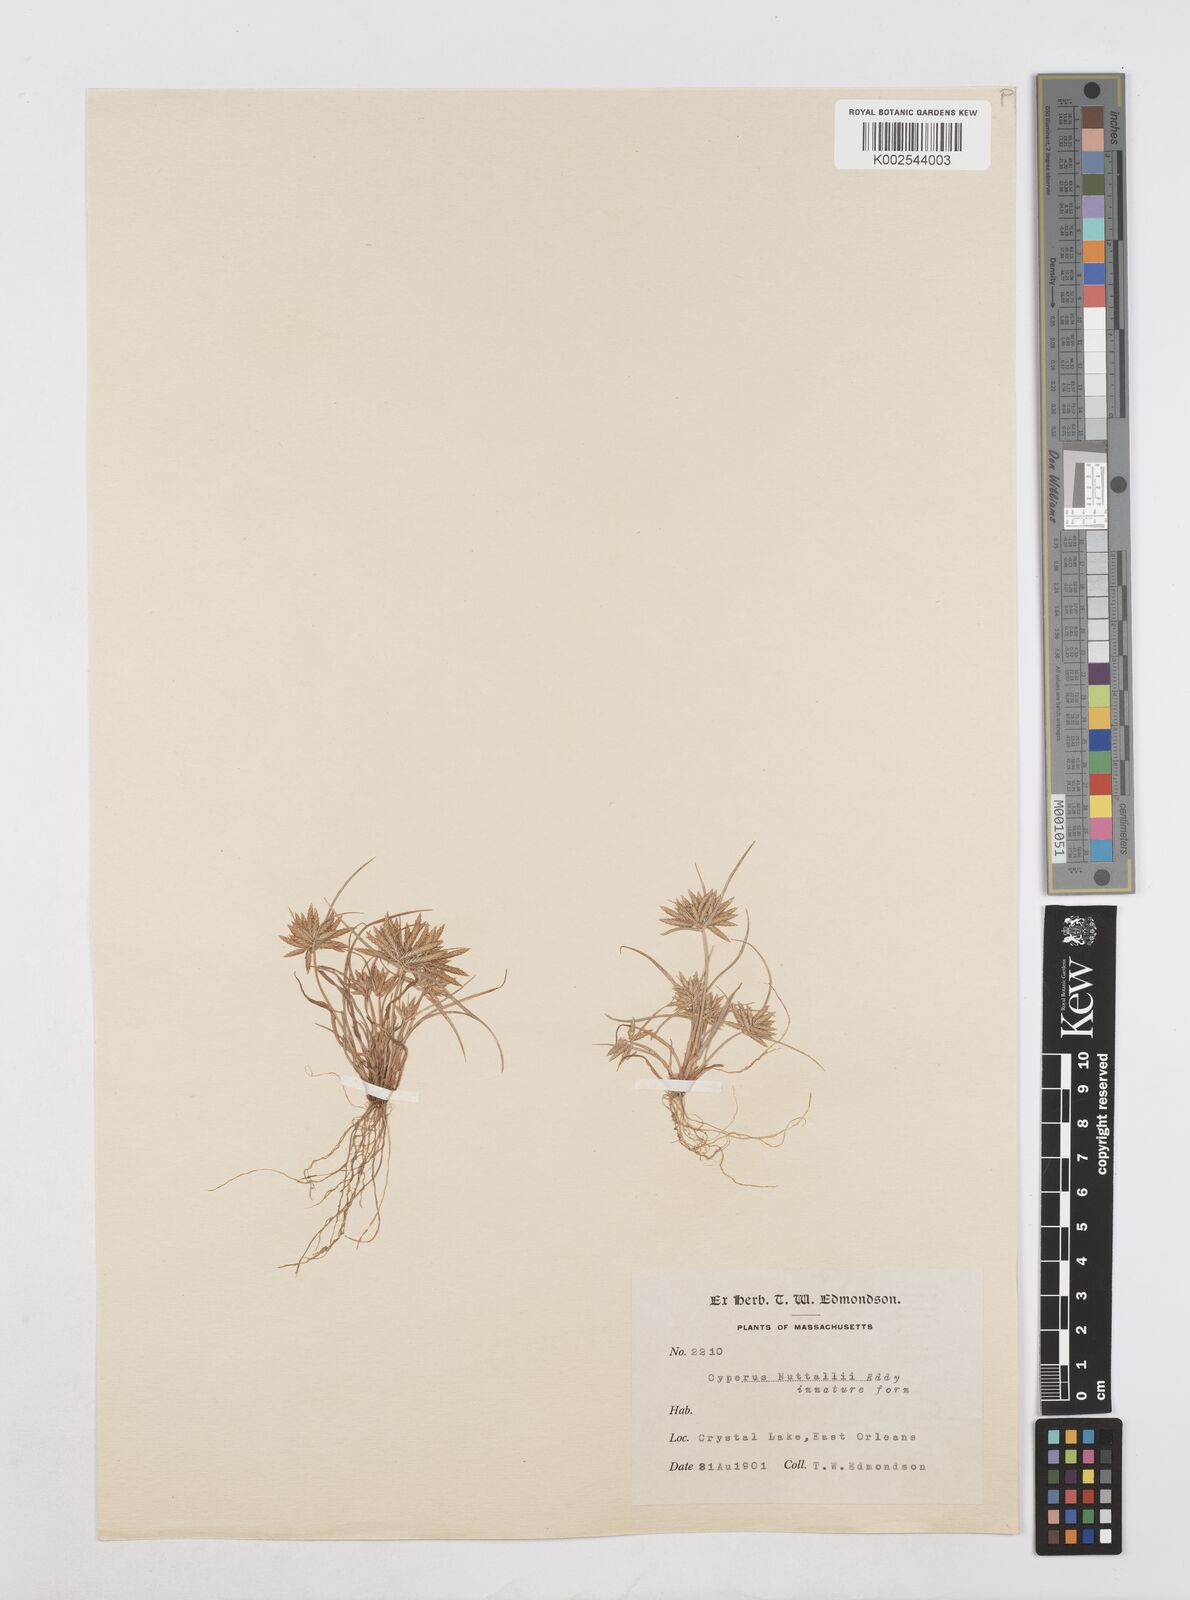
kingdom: Plantae
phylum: Tracheophyta
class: Liliopsida
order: Poales
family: Cyperaceae
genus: Cyperus
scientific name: Cyperus filicinus
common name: Fern flatsedge
